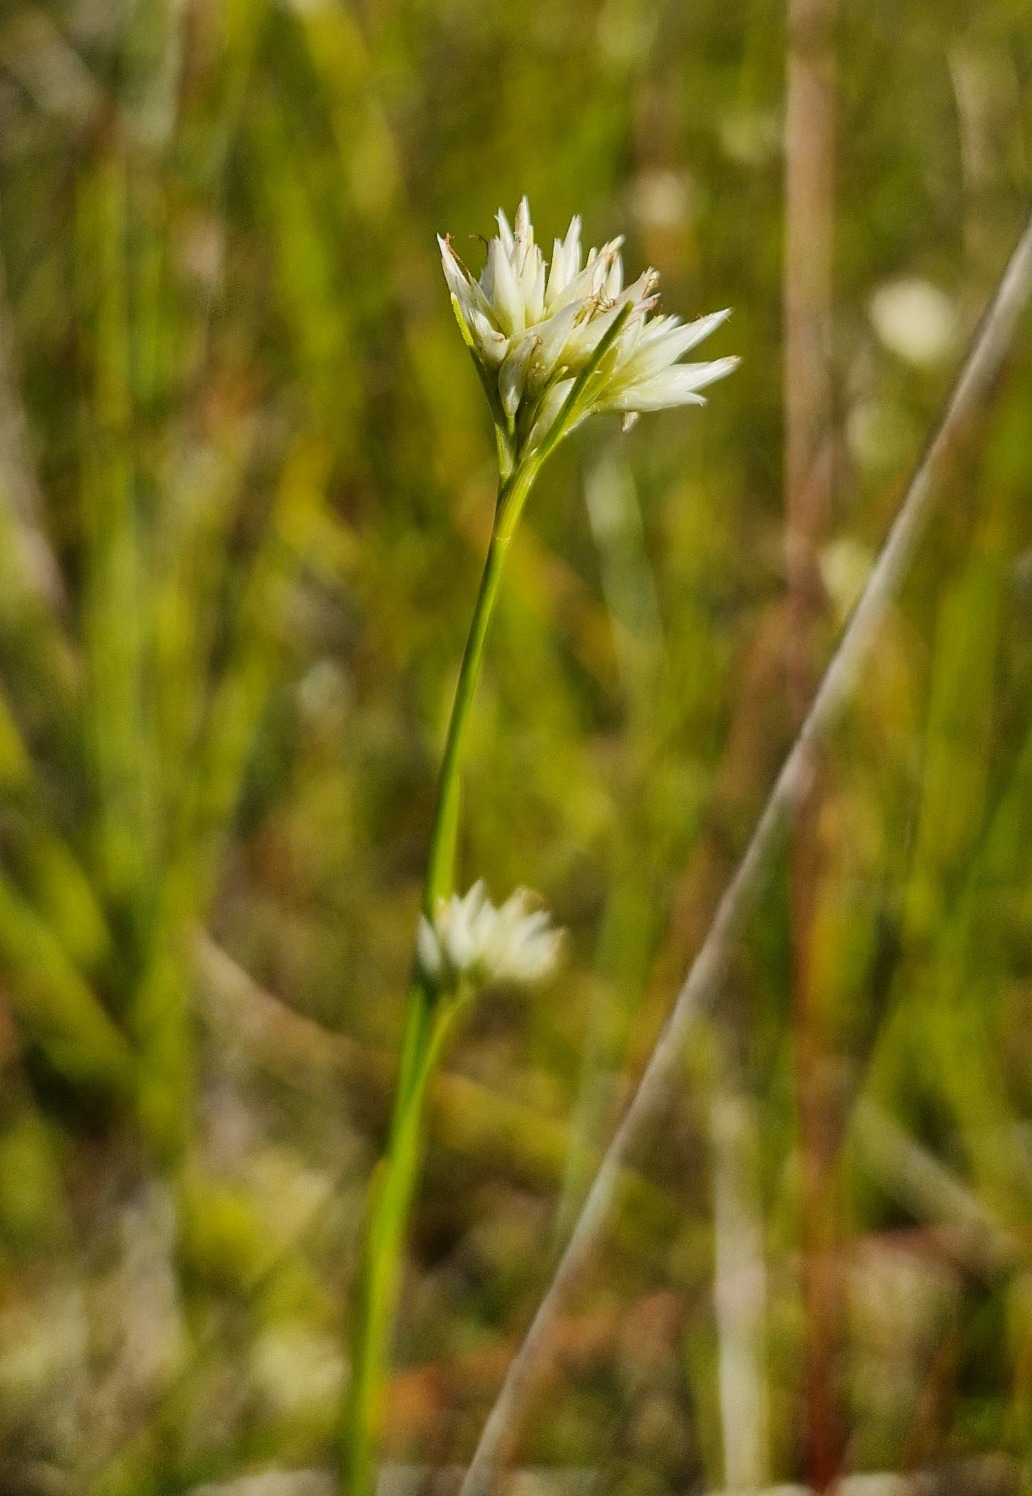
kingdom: Plantae
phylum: Tracheophyta
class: Liliopsida
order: Poales
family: Cyperaceae
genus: Rhynchospora
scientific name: Rhynchospora alba
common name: Hvid næbfrø
